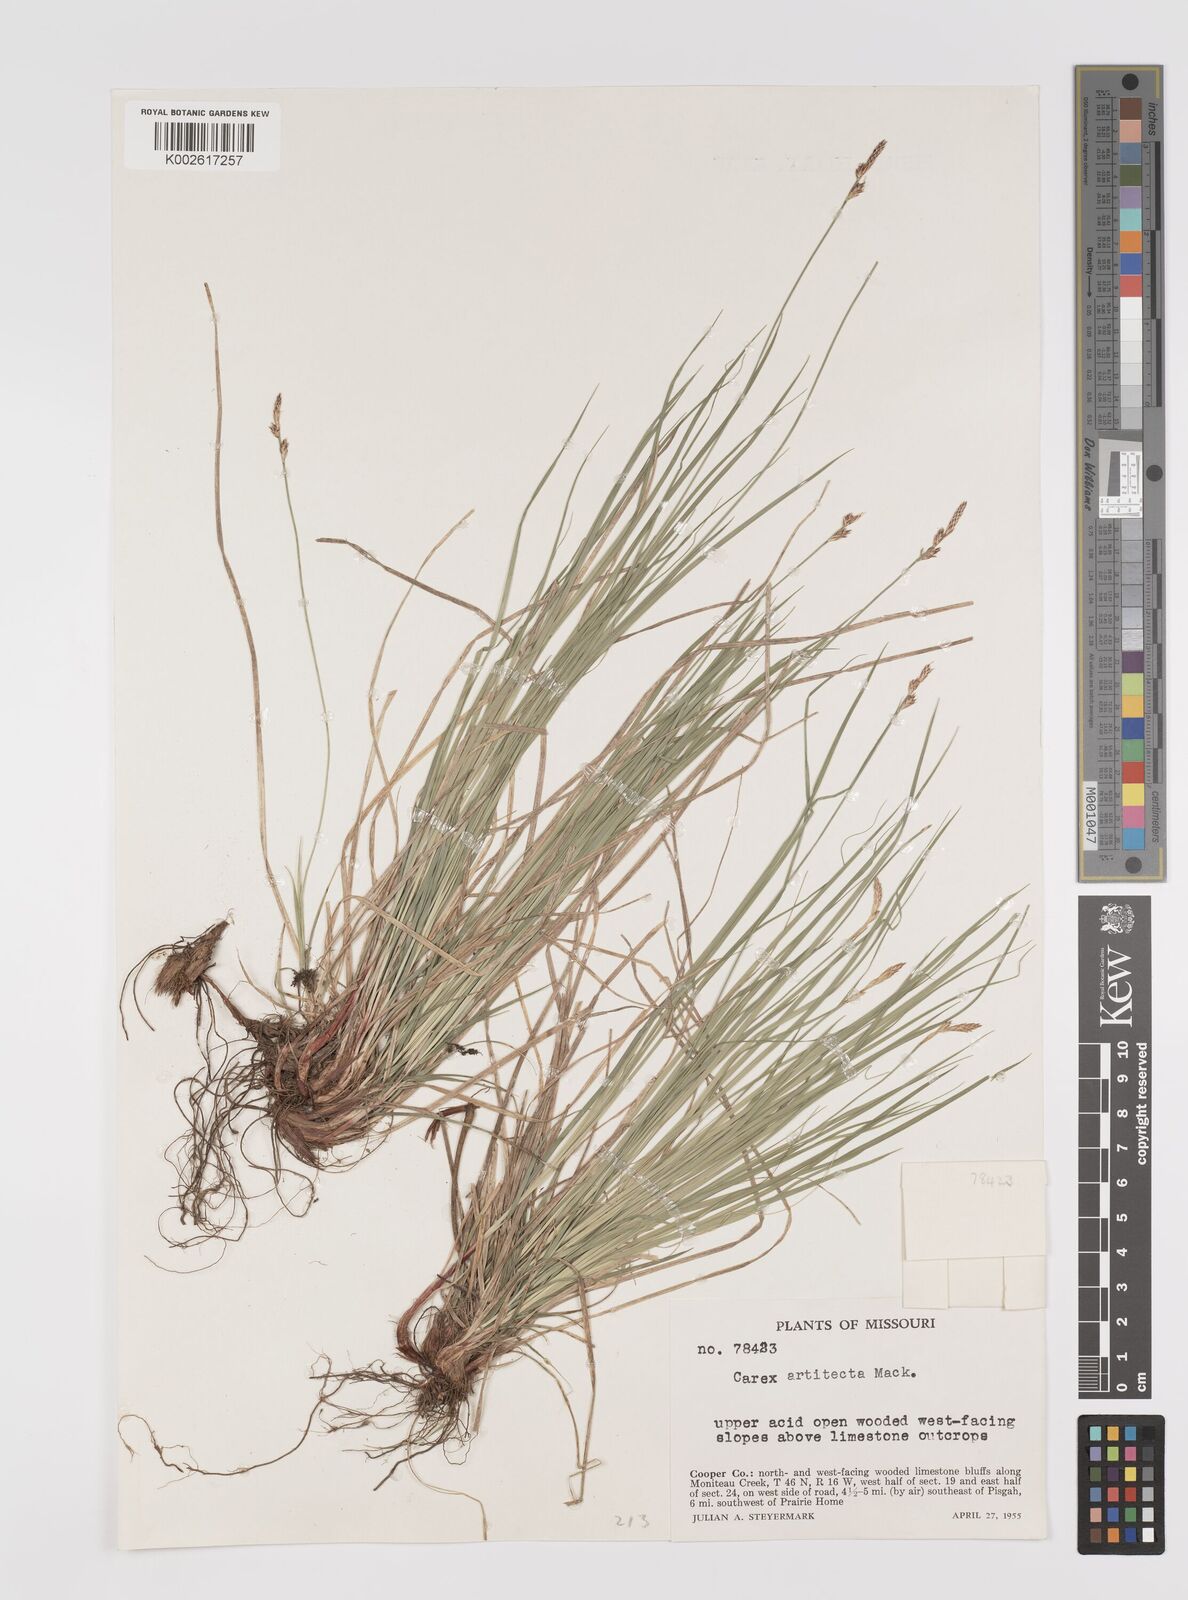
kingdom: Plantae
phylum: Tracheophyta
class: Liliopsida
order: Poales
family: Cyperaceae
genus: Carex
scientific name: Carex albicans
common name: Bellow-beaked sedge
